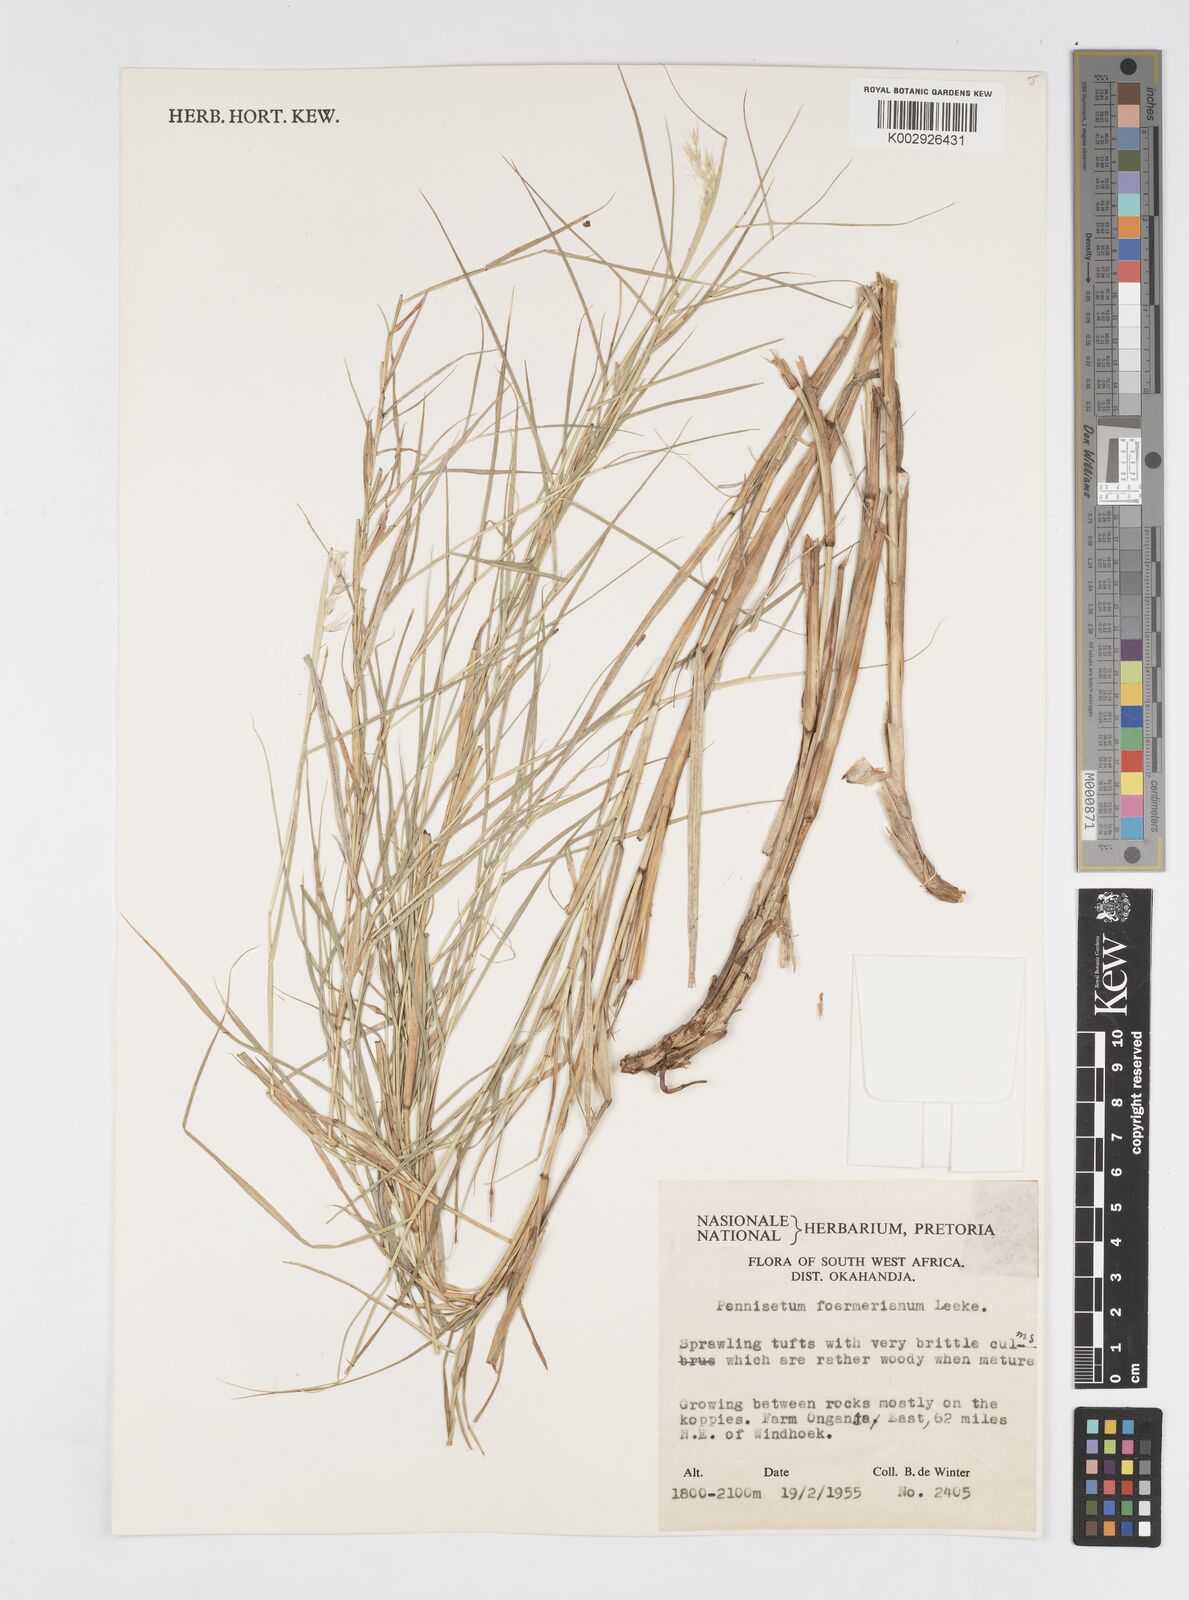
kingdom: Plantae
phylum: Tracheophyta
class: Liliopsida
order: Poales
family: Poaceae
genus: Cenchrus
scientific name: Cenchrus foermerianus
